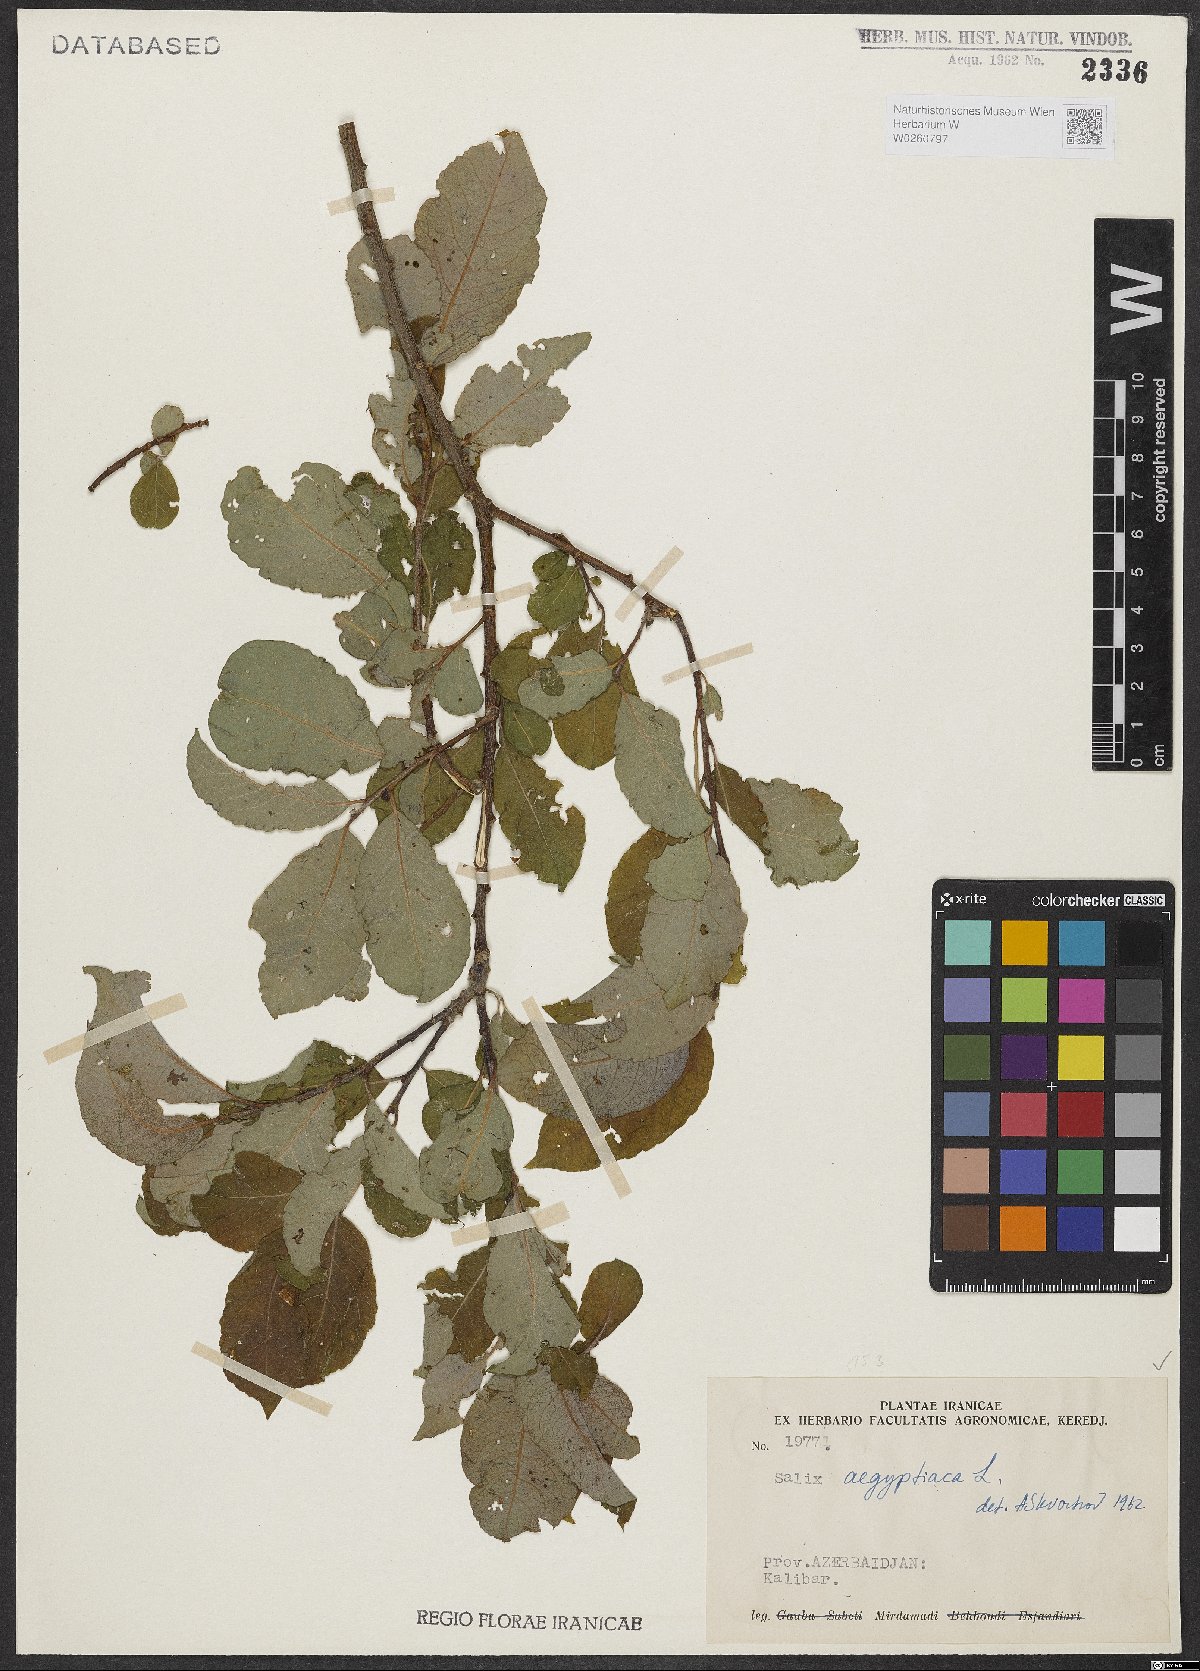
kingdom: Plantae
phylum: Tracheophyta
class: Magnoliopsida
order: Malpighiales
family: Salicaceae
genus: Salix
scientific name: Salix aegyptiaca
